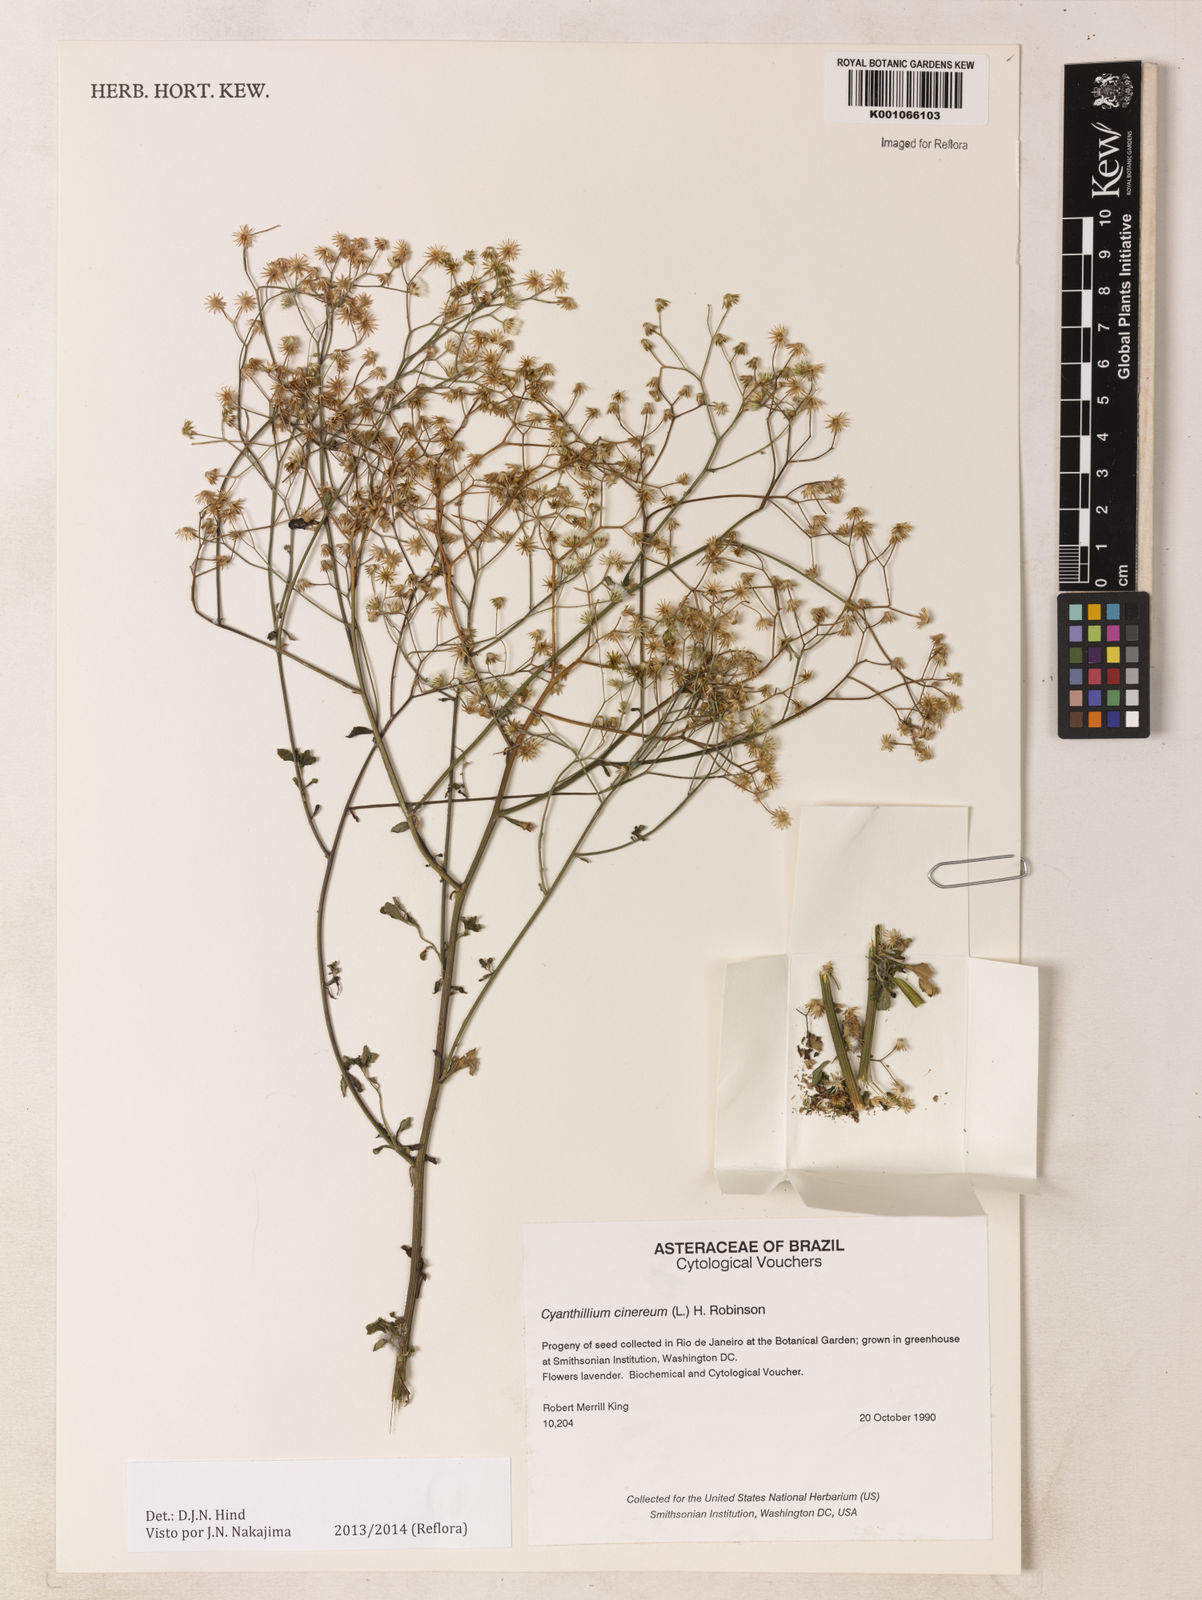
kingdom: Plantae
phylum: Tracheophyta
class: Magnoliopsida
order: Asterales
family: Asteraceae
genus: Cyanthillium
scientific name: Cyanthillium cinereum
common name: Little ironweed
